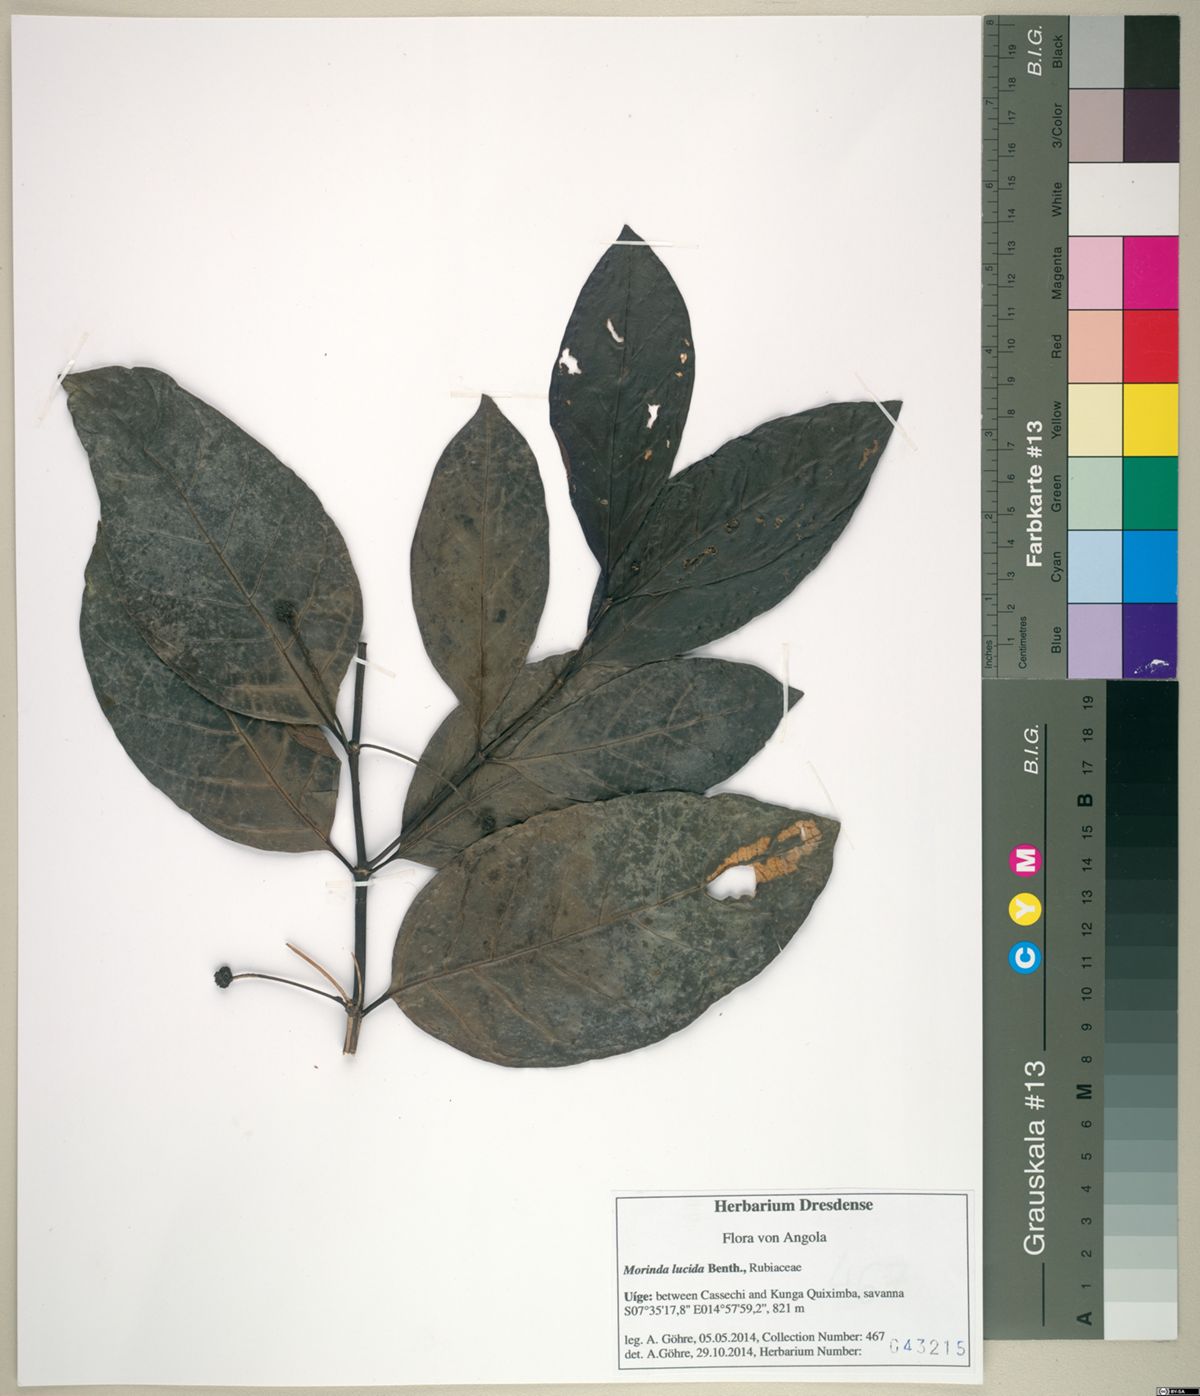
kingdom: Plantae
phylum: Tracheophyta
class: Magnoliopsida
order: Gentianales
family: Rubiaceae
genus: Morinda
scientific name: Morinda lucida
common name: Brimstonetree
